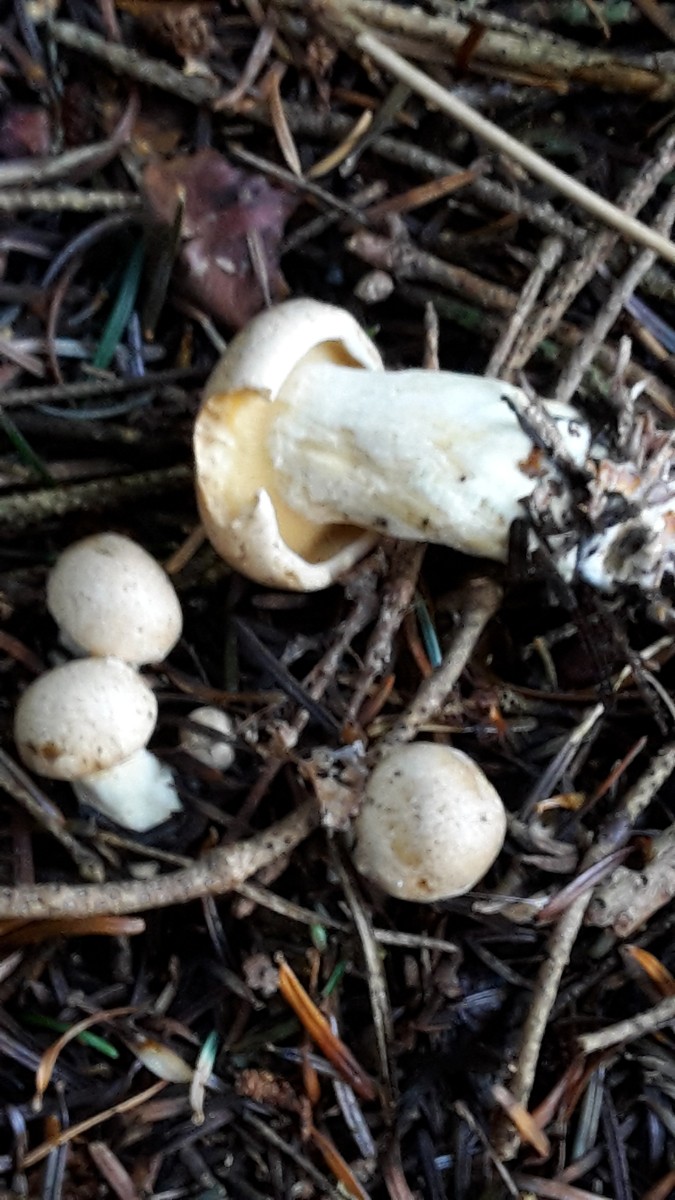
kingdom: Fungi
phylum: Basidiomycota
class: Agaricomycetes
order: Agaricales
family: Pseudoclitocybaceae
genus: Clitopaxillus
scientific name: Clitopaxillus fibulatus
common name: bestøvlet tragthat
